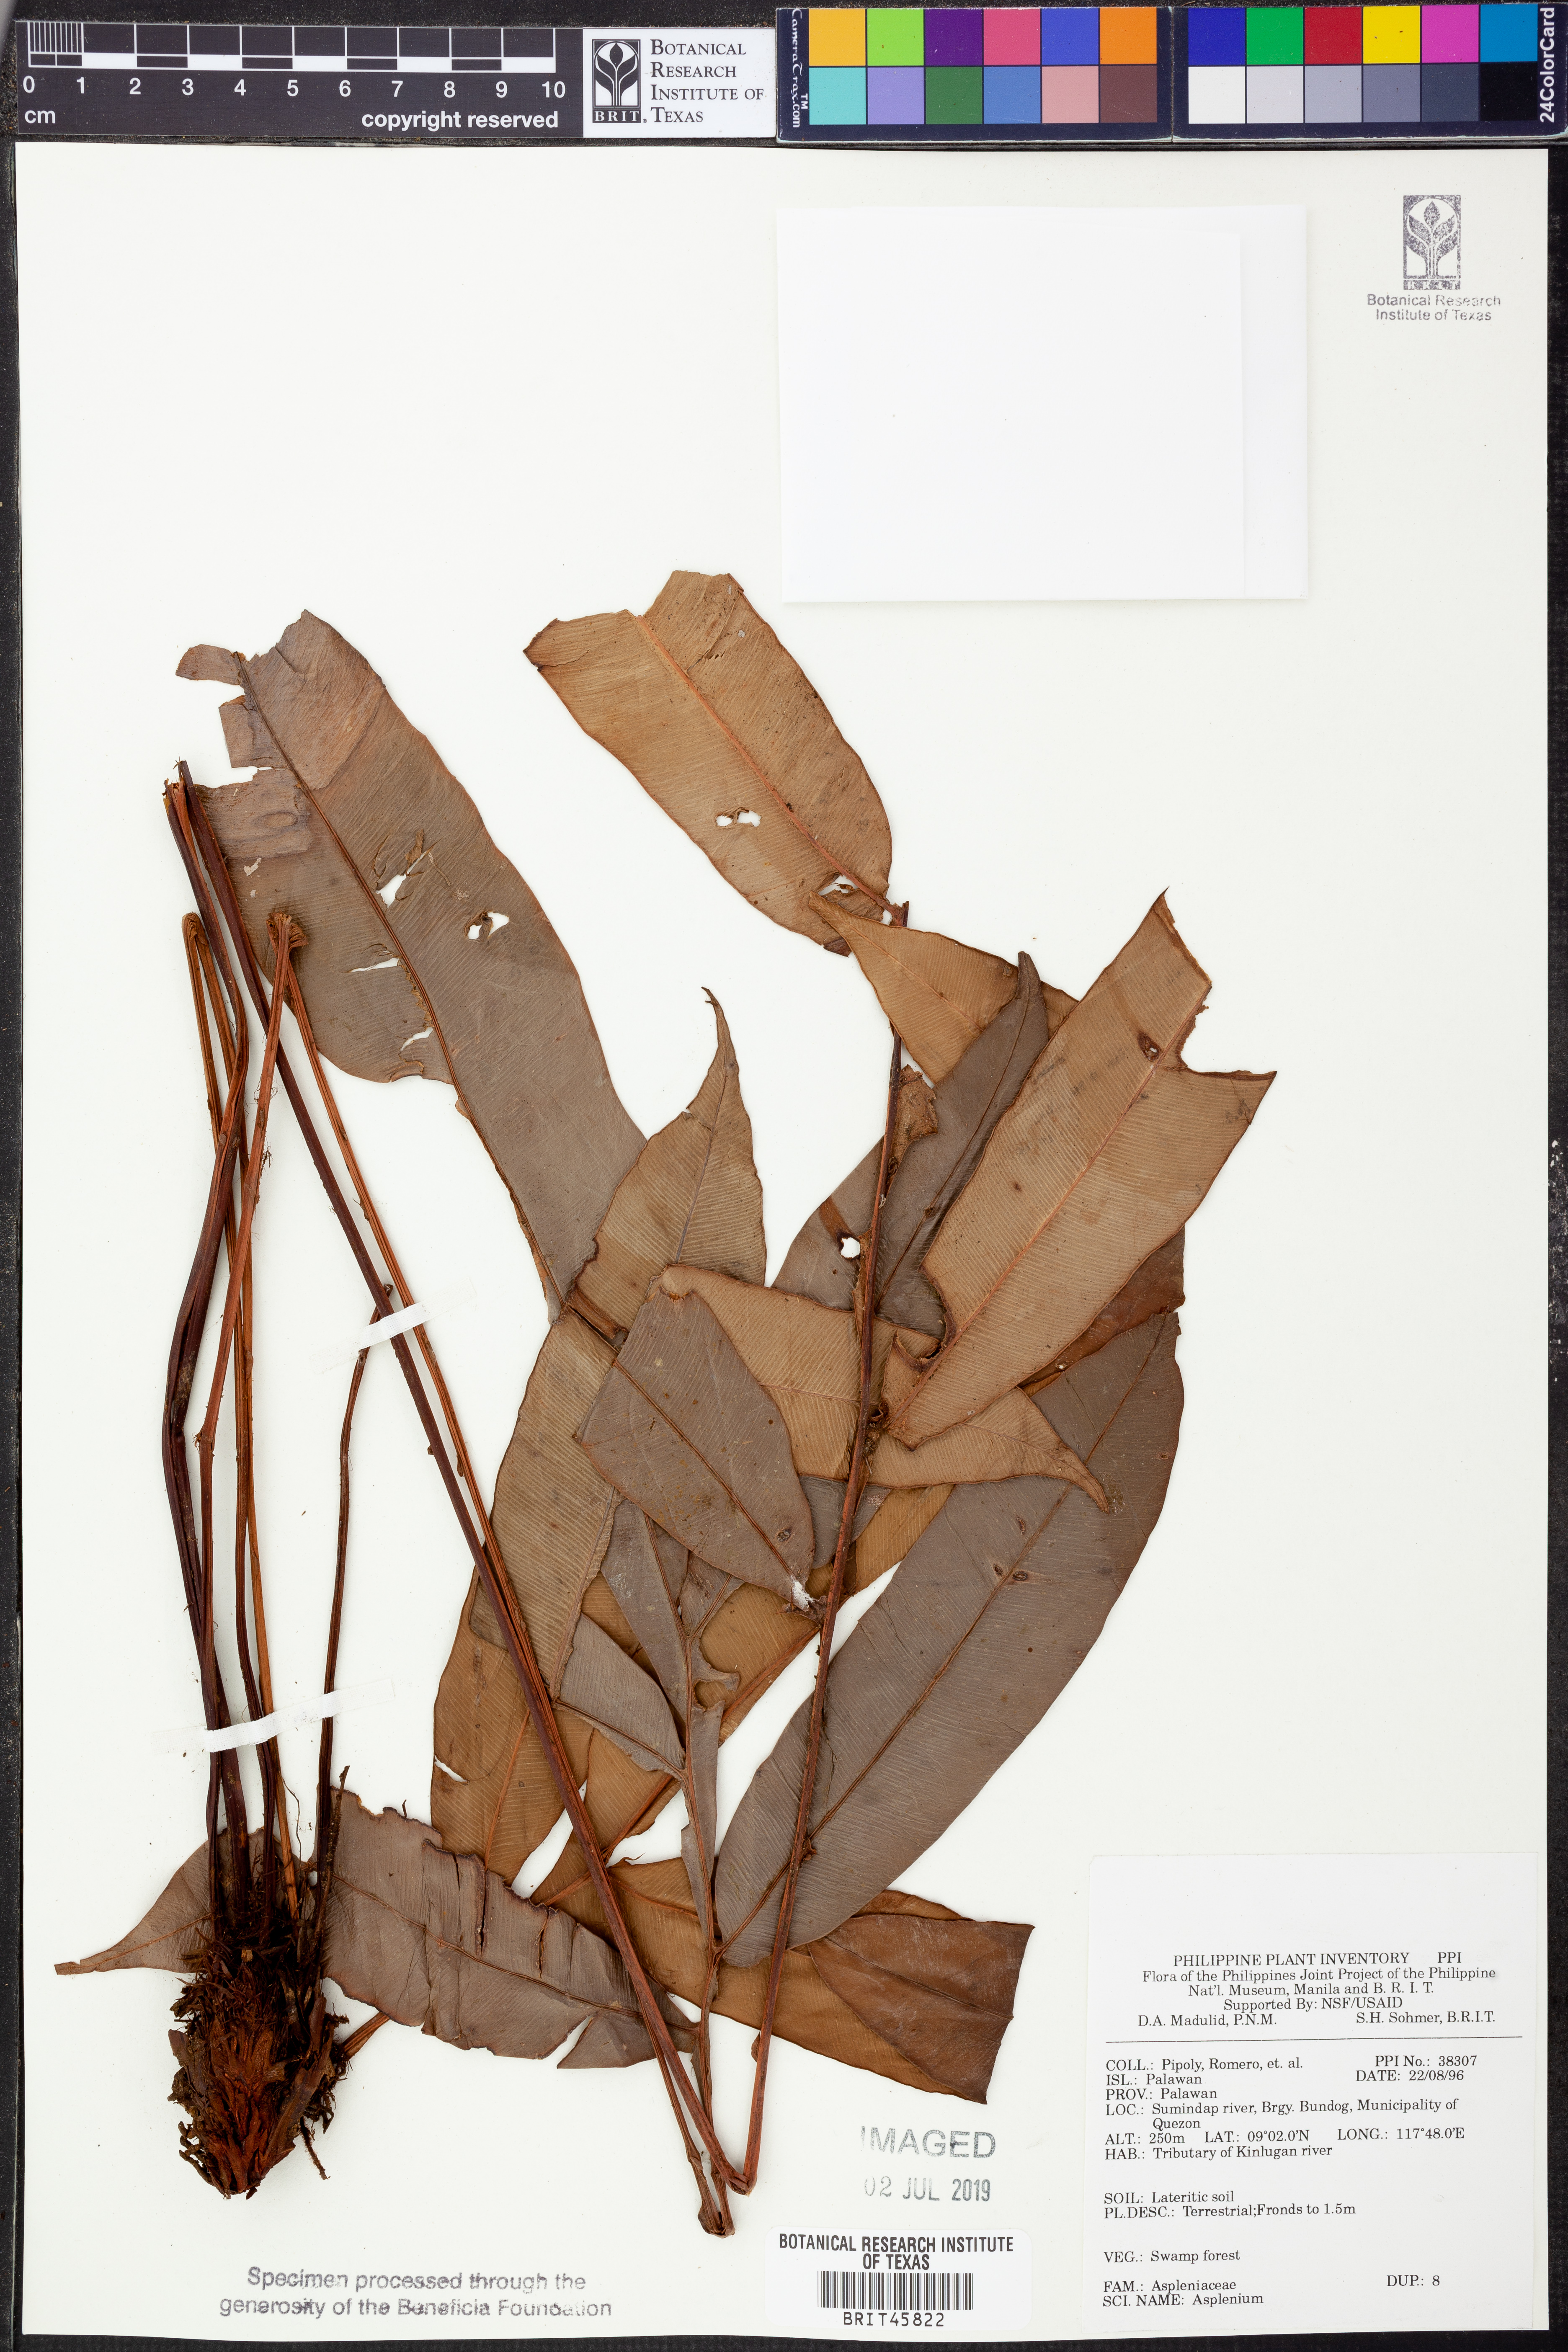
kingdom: Plantae
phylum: Tracheophyta
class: Polypodiopsida
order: Polypodiales
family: Aspleniaceae
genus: Asplenium
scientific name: Asplenium
